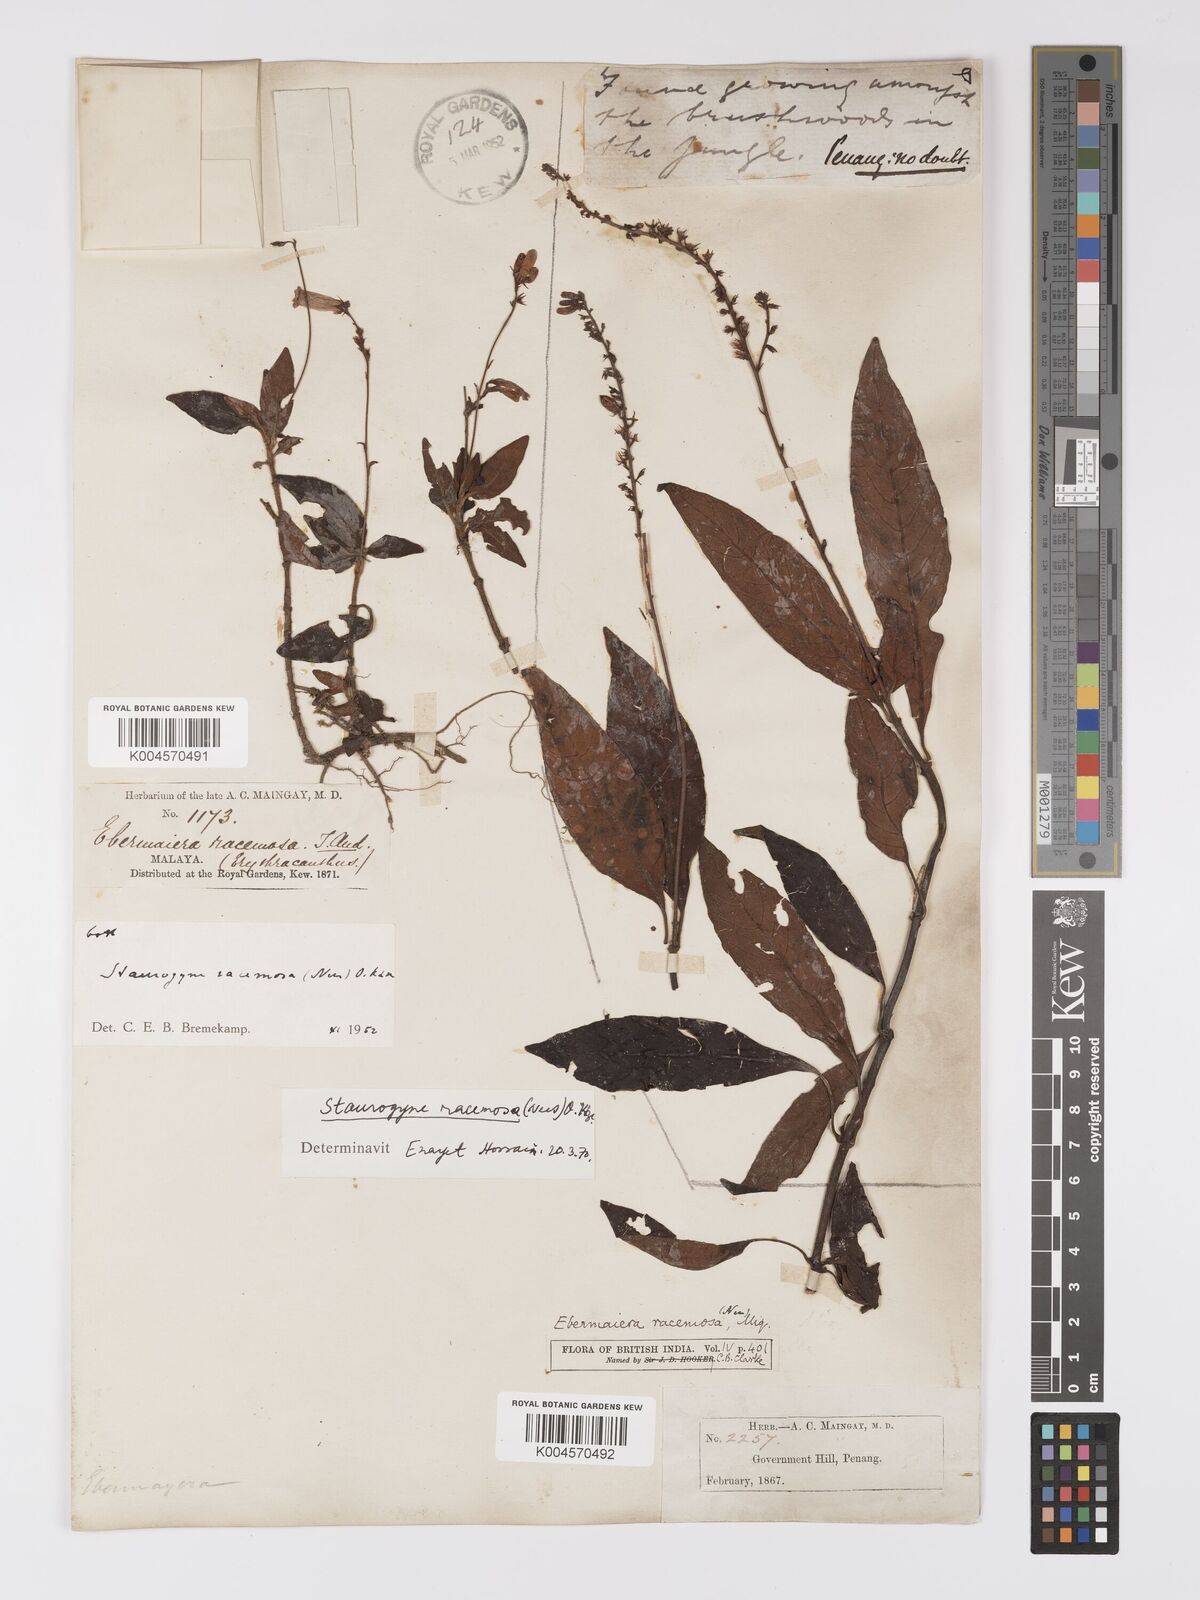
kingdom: Plantae
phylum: Tracheophyta
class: Magnoliopsida
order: Lamiales
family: Acanthaceae
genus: Staurogyne
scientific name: Staurogyne racemosa
